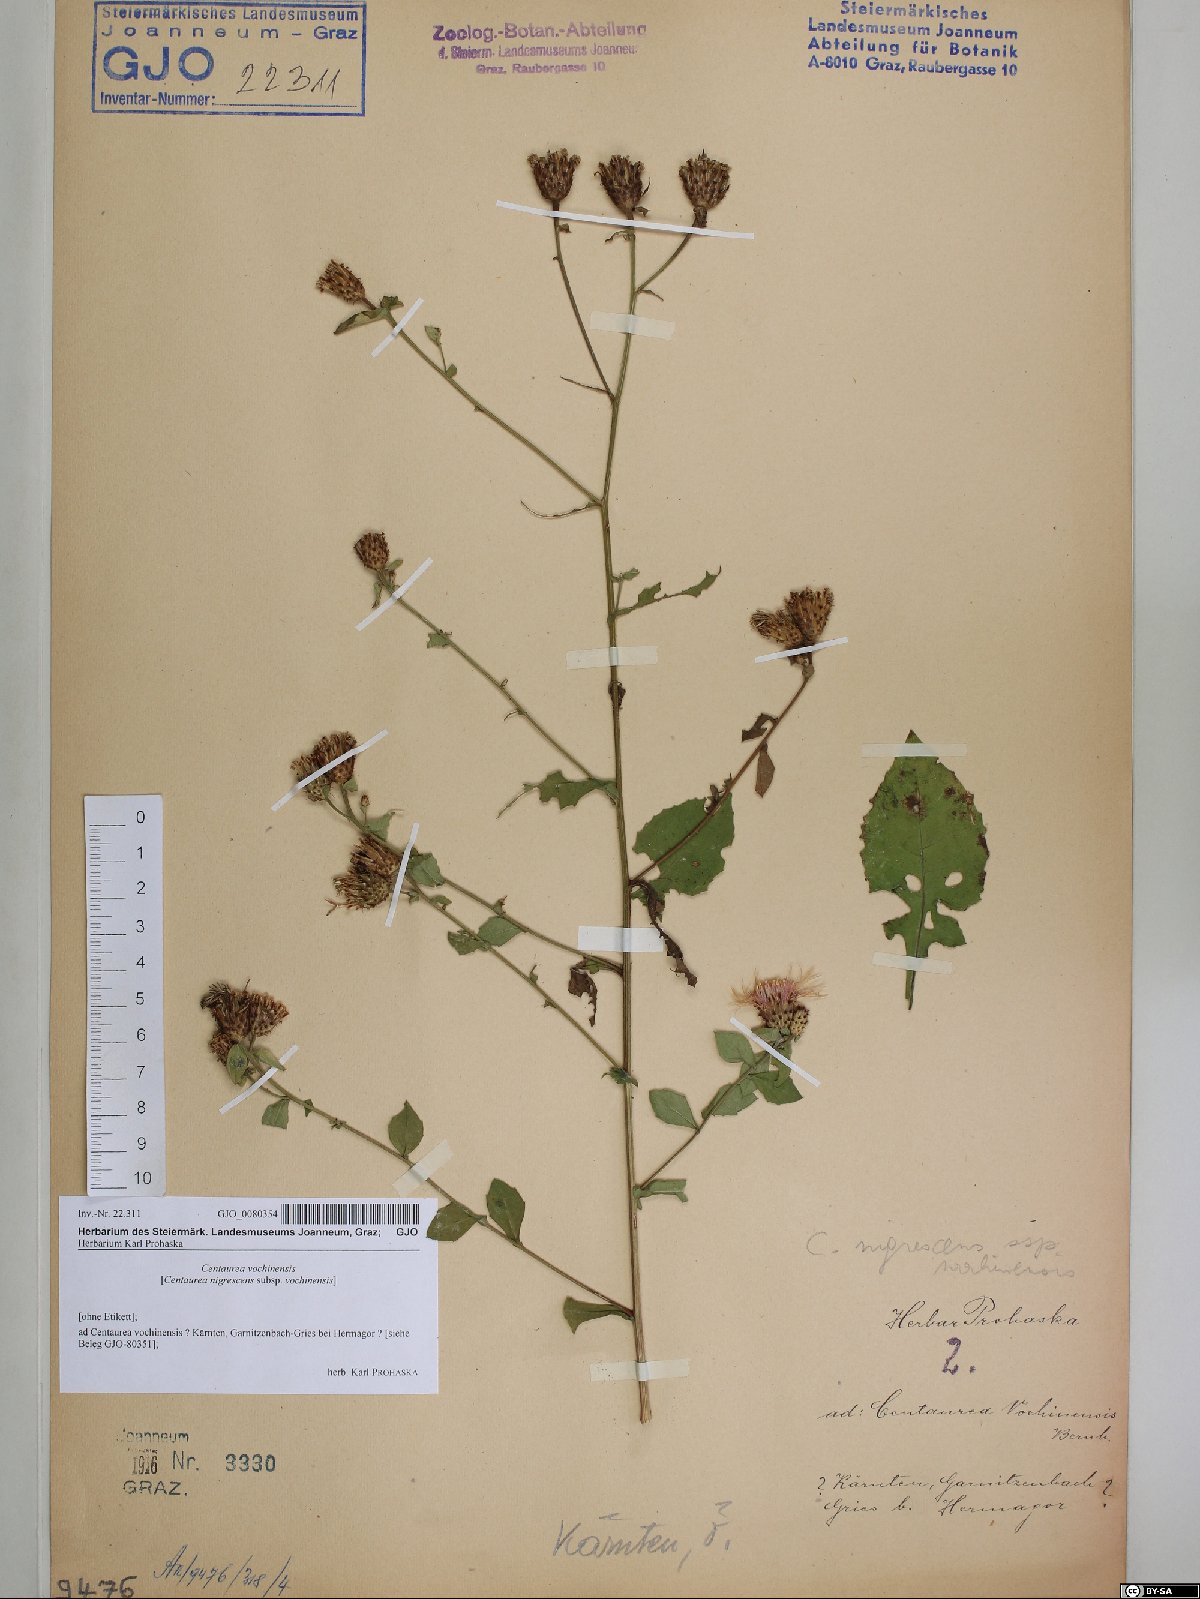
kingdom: Plantae
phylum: Tracheophyta
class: Magnoliopsida
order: Asterales
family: Asteraceae
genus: Centaurea
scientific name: Centaurea carniolica
